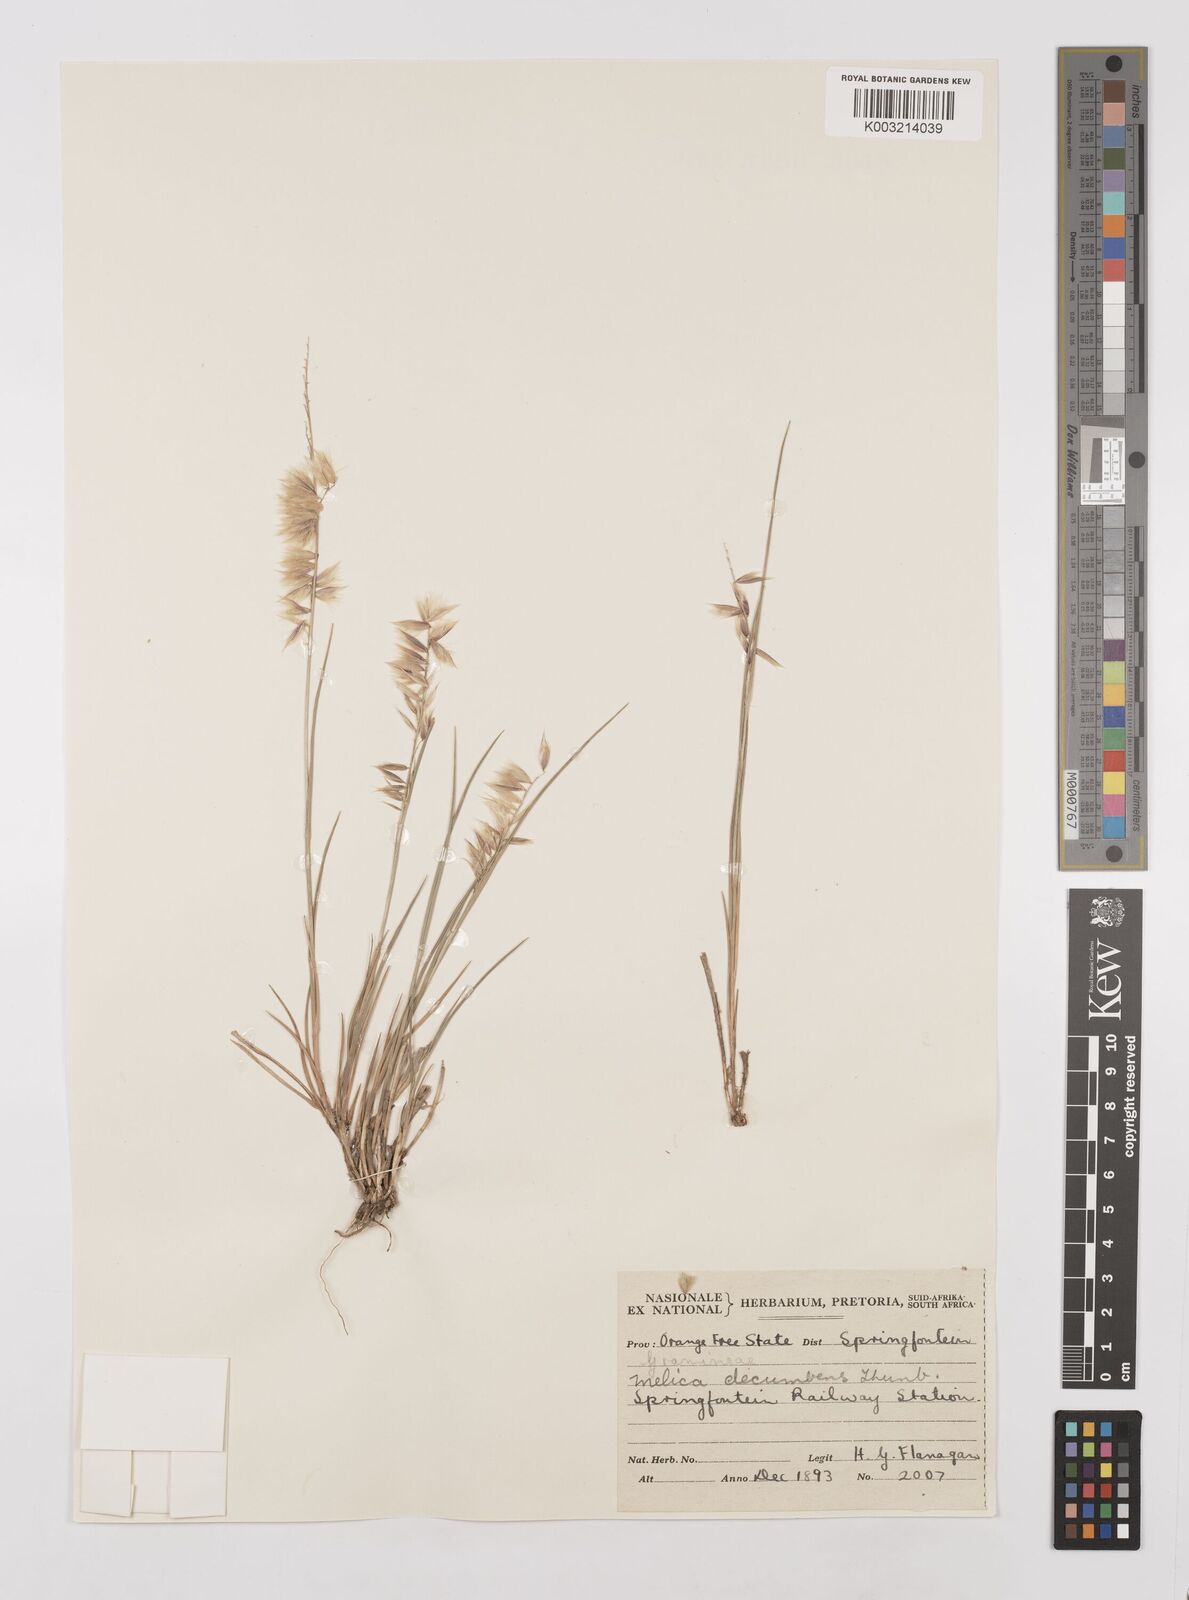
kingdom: Plantae
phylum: Tracheophyta
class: Liliopsida
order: Poales
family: Poaceae
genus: Melica
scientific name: Melica dendroides
